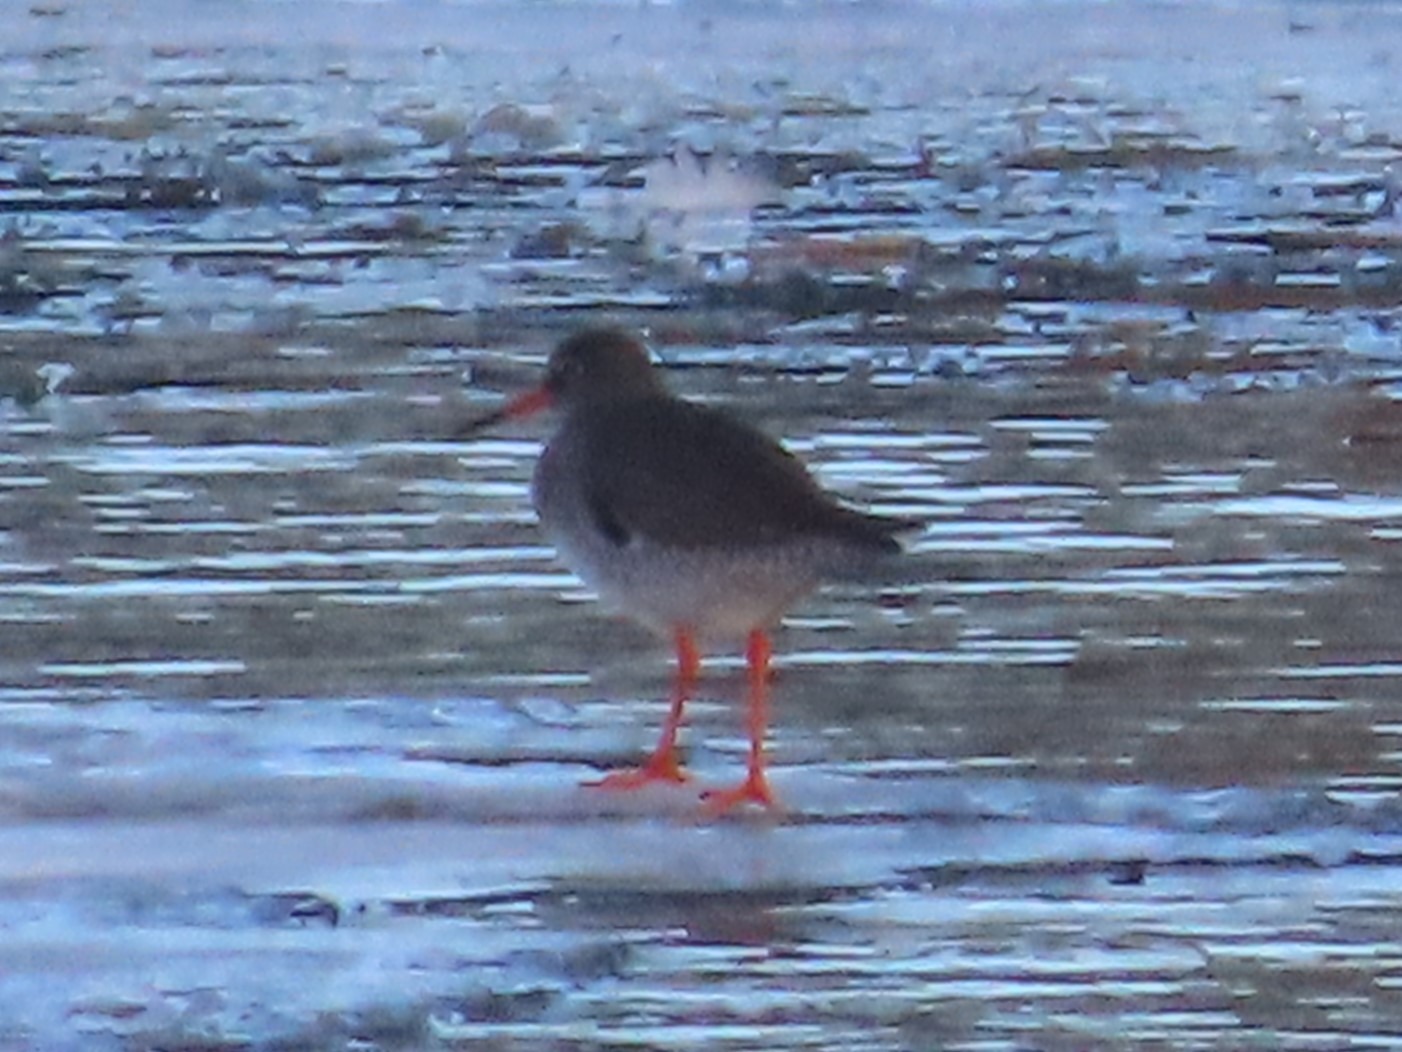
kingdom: Animalia
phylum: Chordata
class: Aves
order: Charadriiformes
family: Scolopacidae
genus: Tringa
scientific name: Tringa totanus
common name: Islandsk rødben
